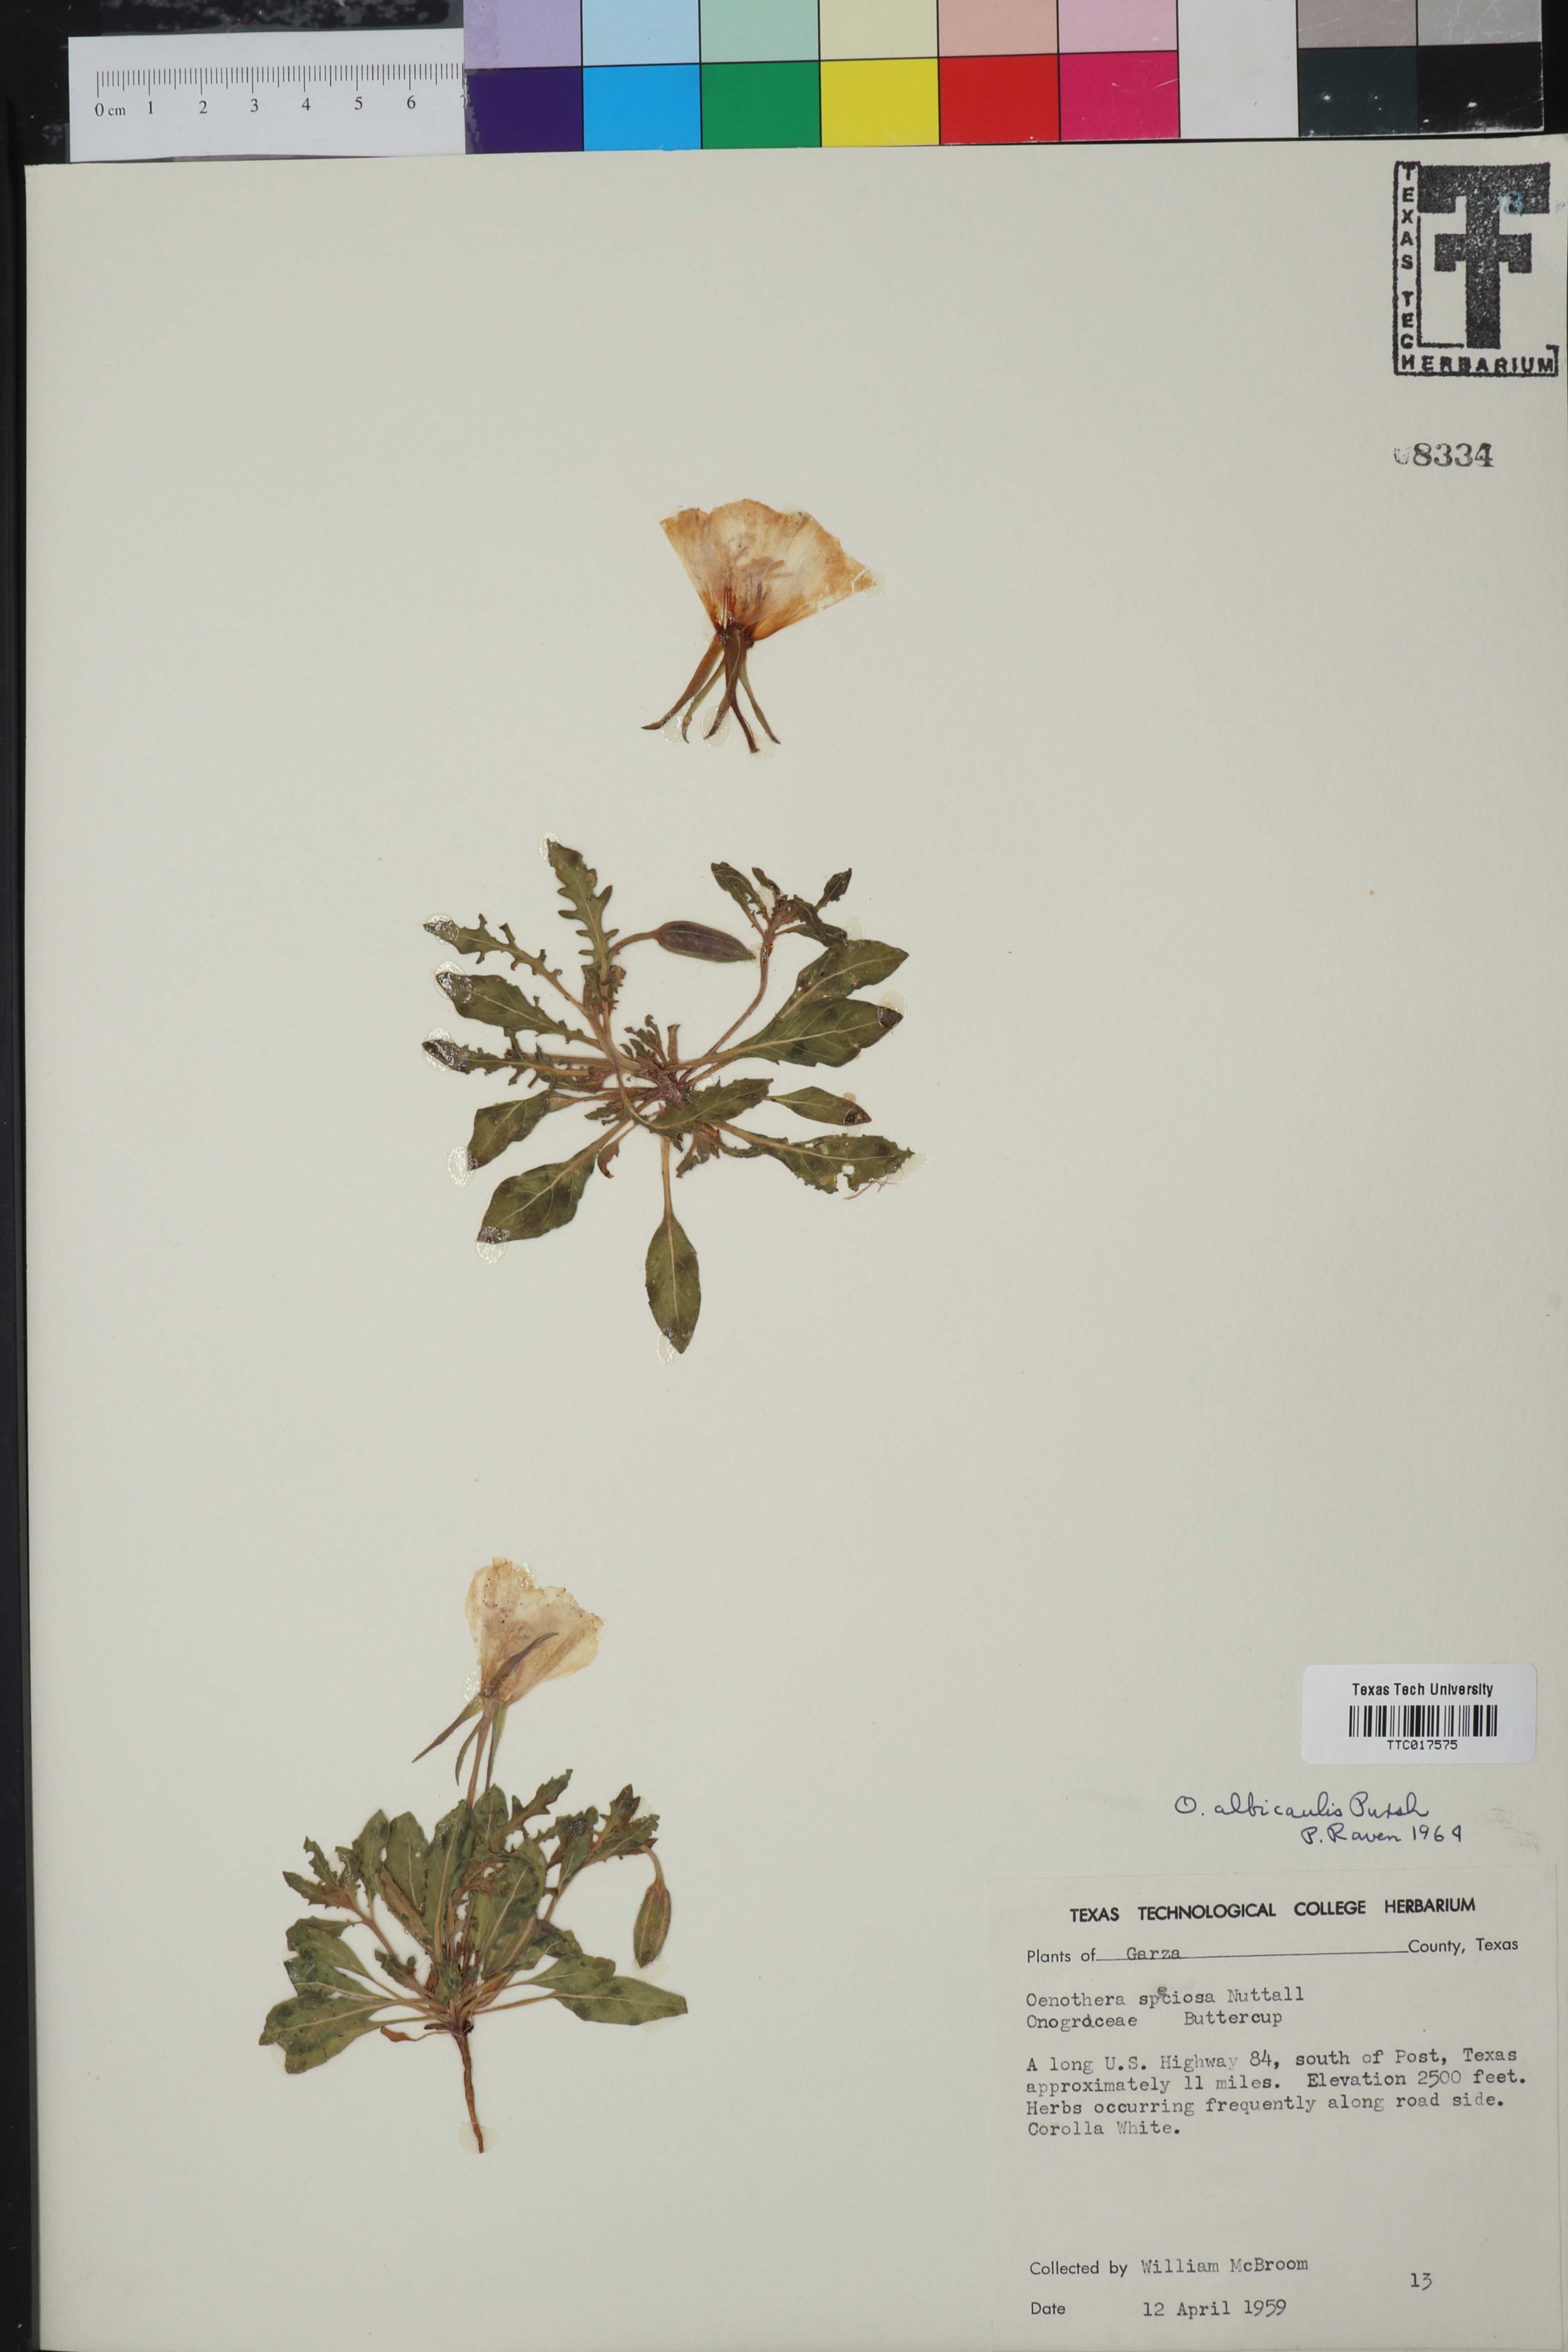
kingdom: Plantae
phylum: Tracheophyta
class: Magnoliopsida
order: Myrtales
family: Onagraceae
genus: Oenothera
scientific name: Oenothera albicaulis
